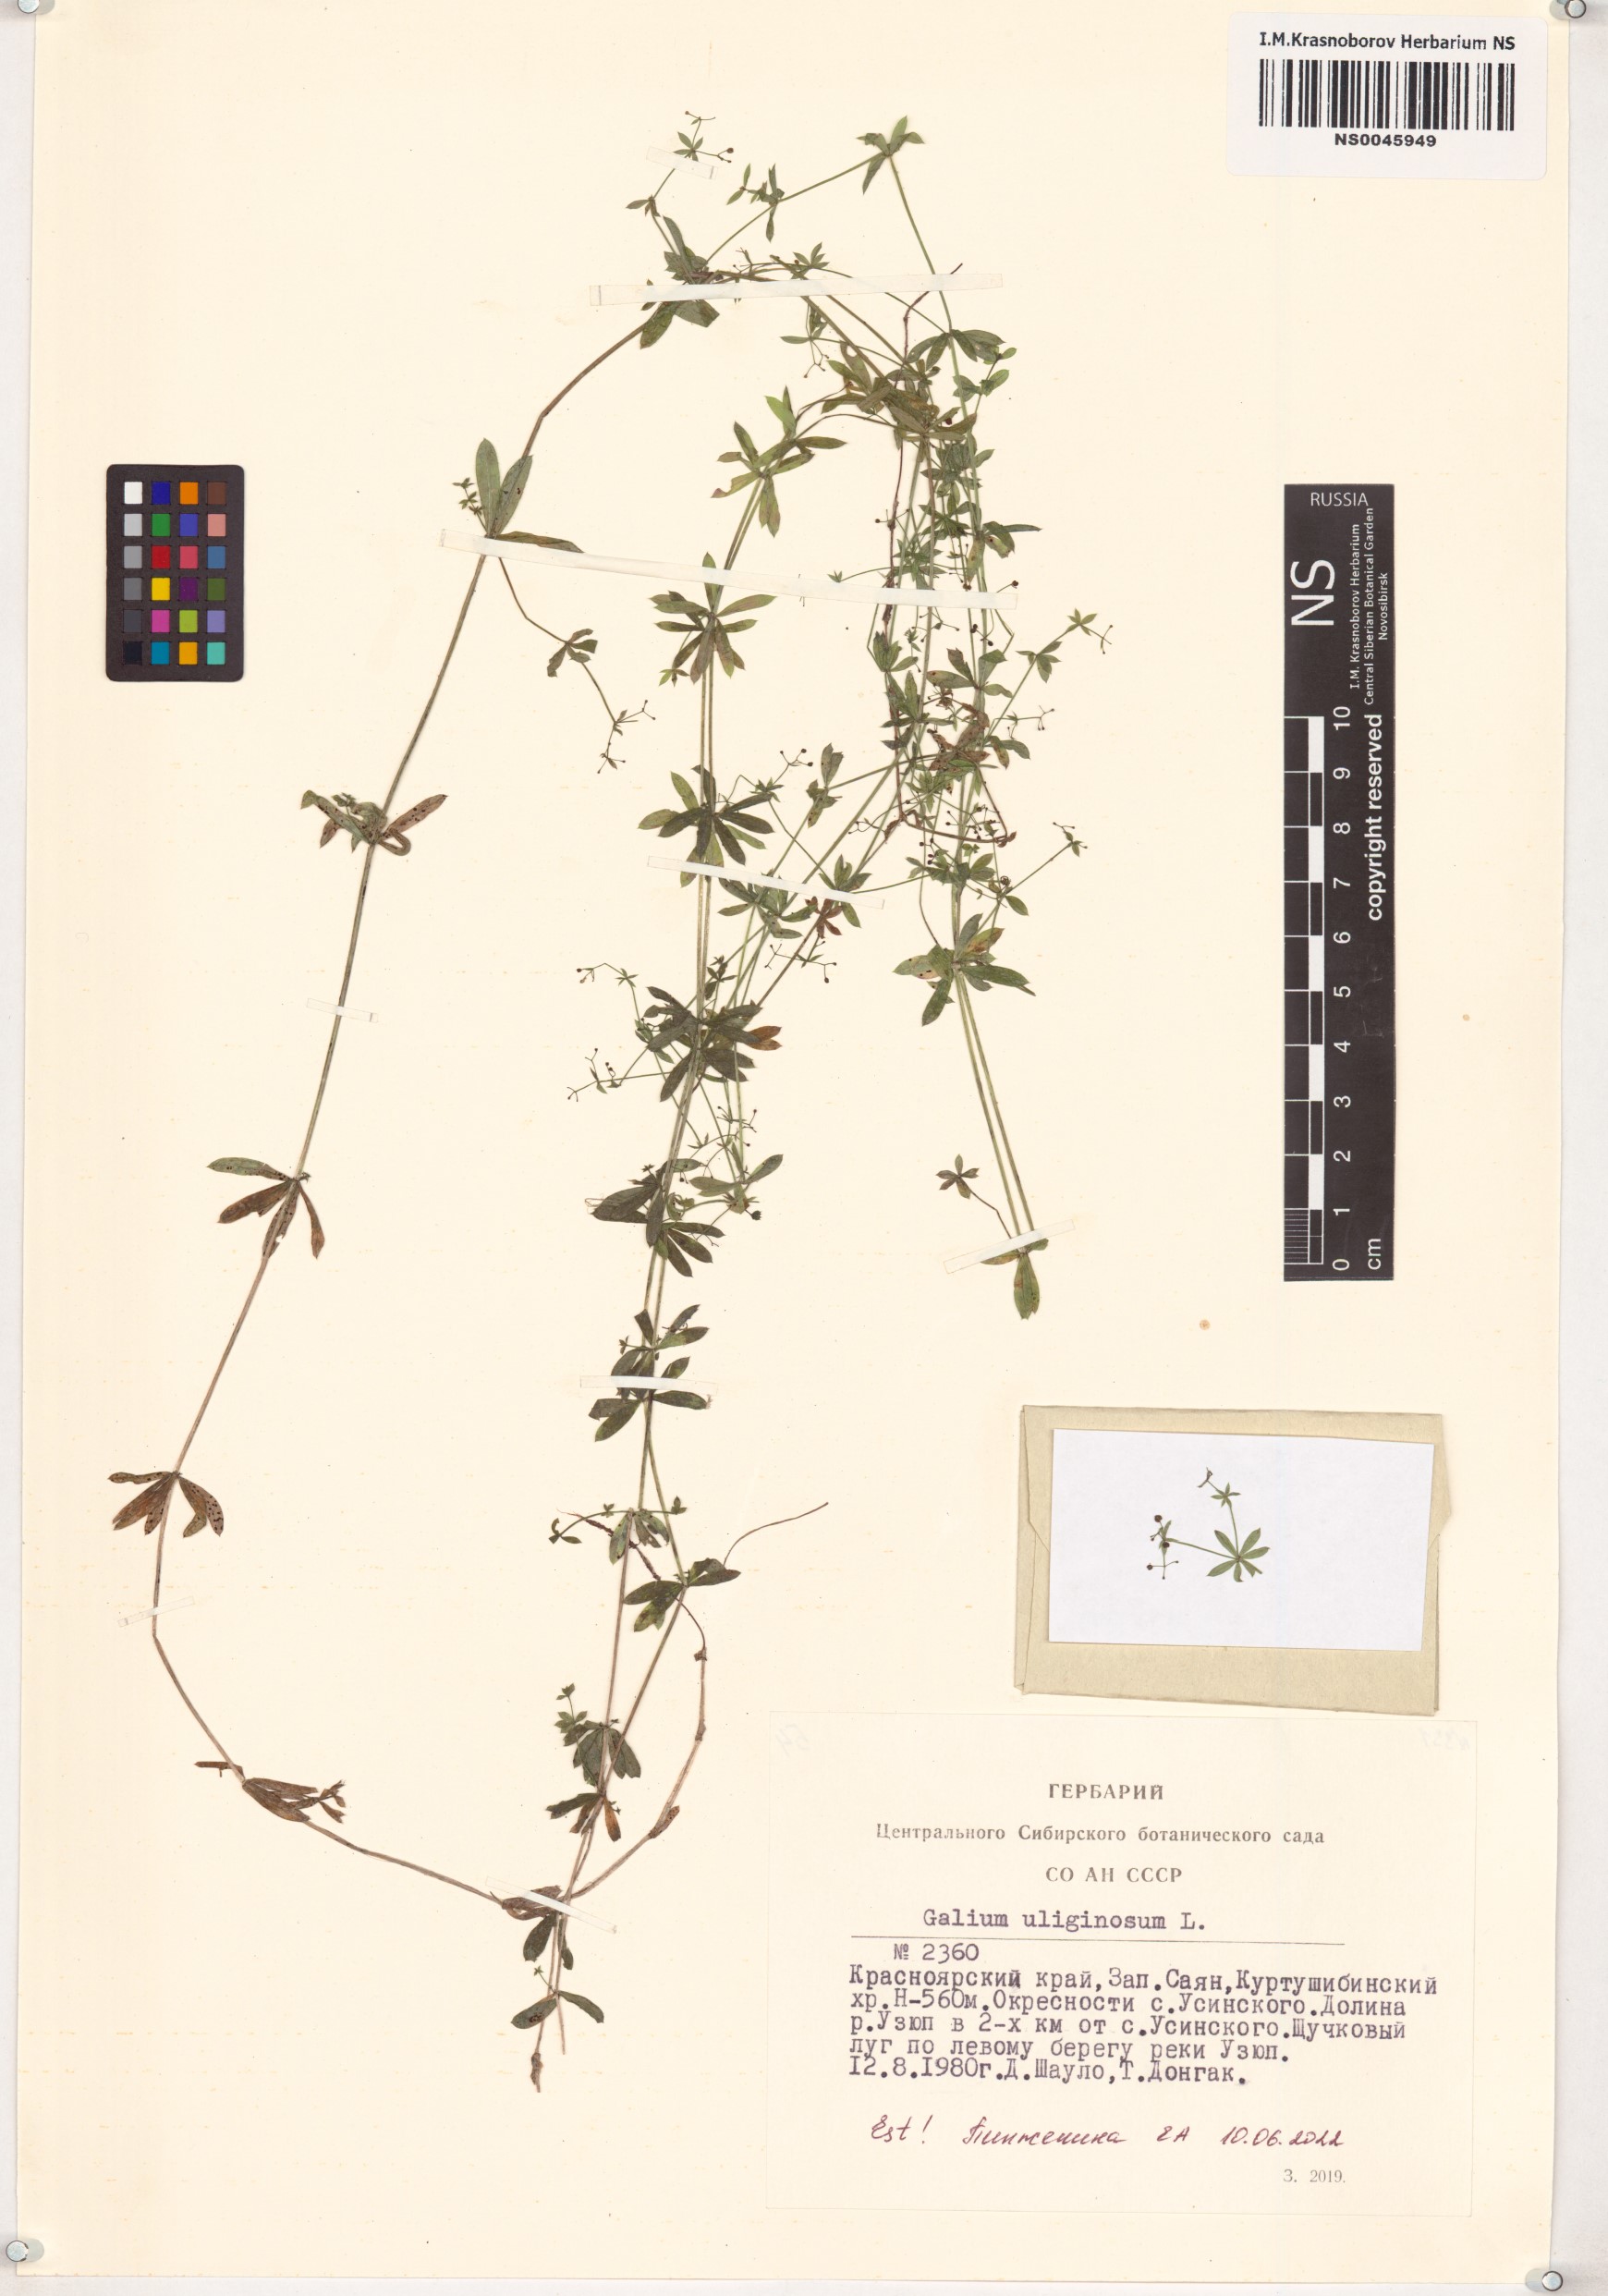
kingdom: Plantae
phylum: Tracheophyta
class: Magnoliopsida
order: Gentianales
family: Rubiaceae
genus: Galium
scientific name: Galium uliginosum
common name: Fen bedstraw
